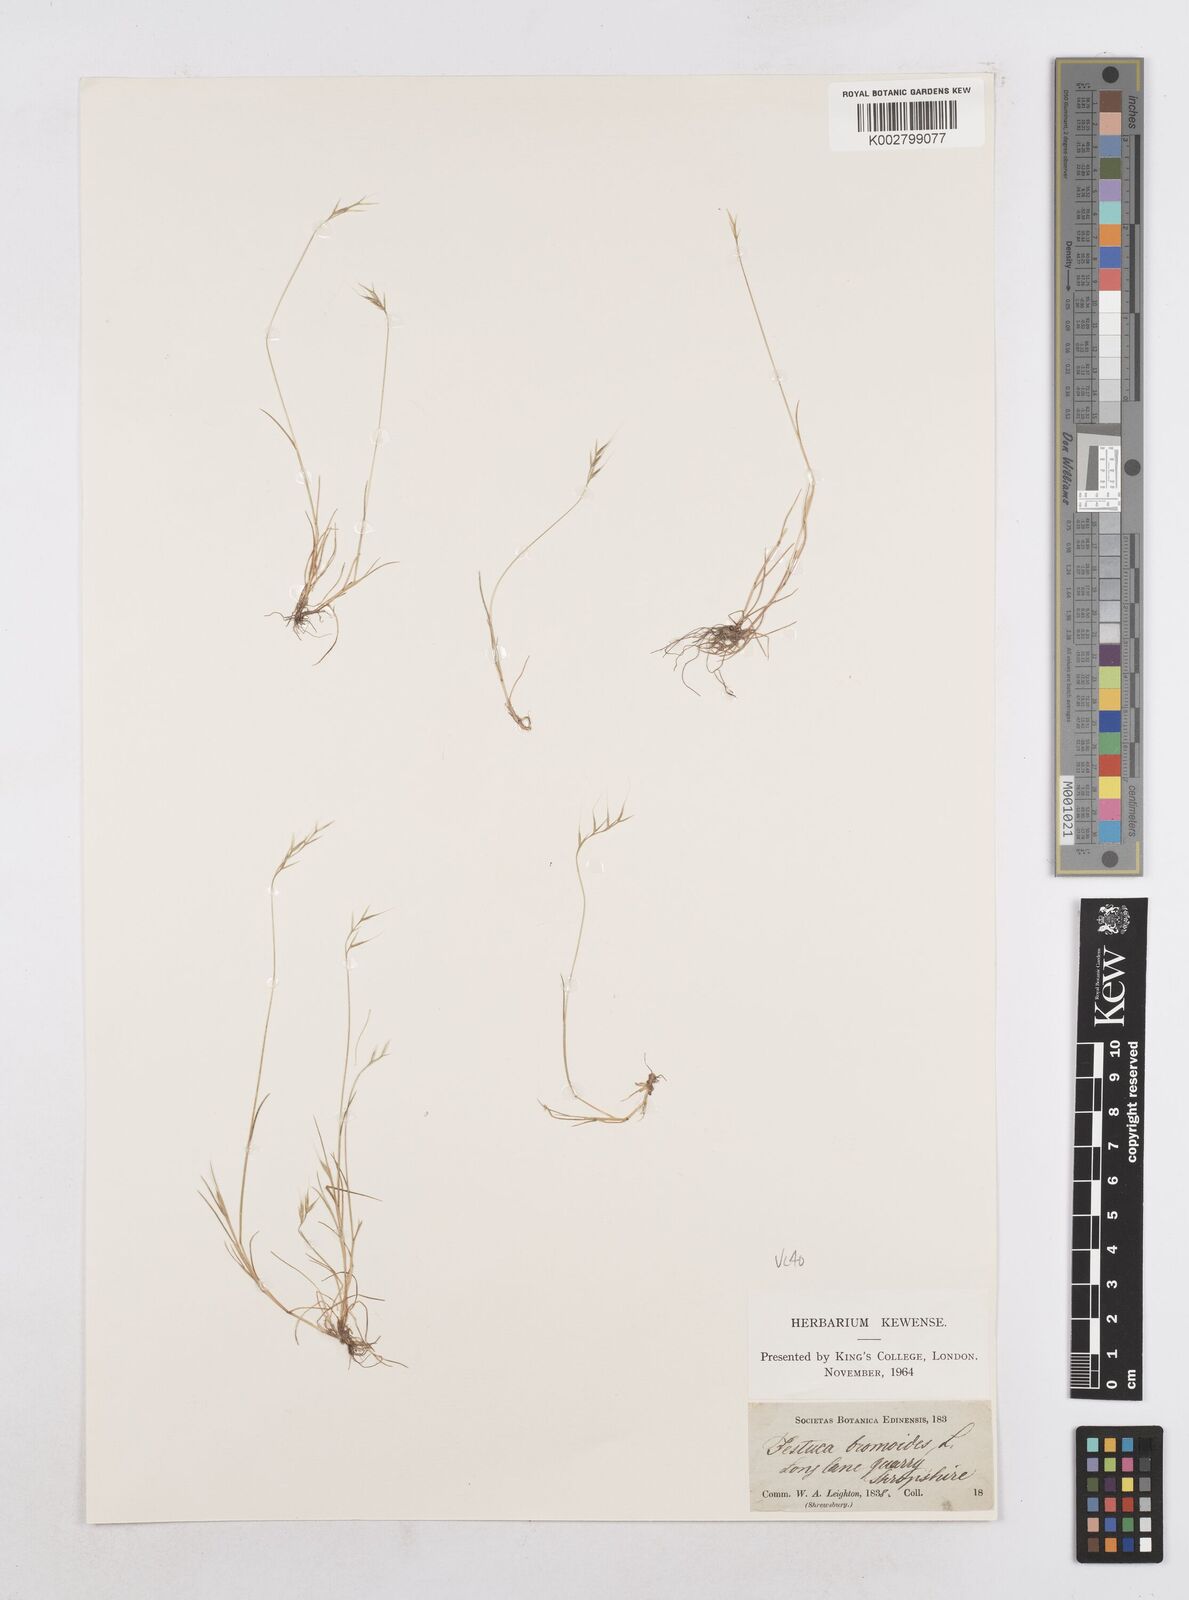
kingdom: Plantae
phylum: Tracheophyta
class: Liliopsida
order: Poales
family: Poaceae
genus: Festuca
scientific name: Festuca bromoides
